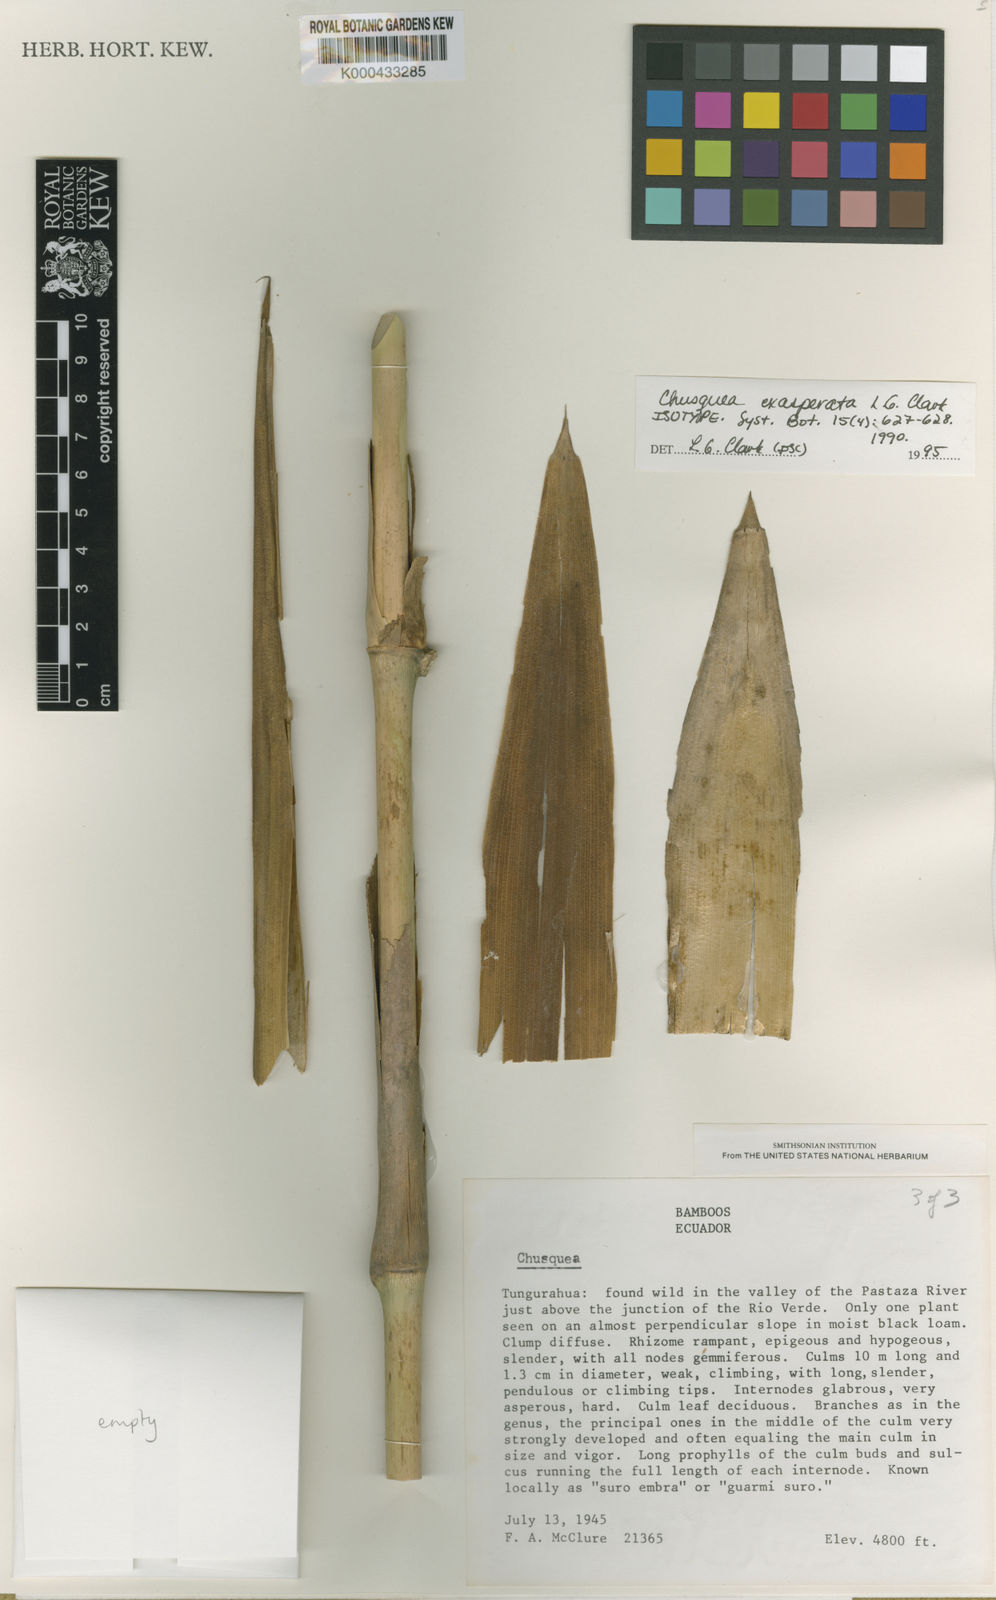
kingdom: Plantae
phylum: Tracheophyta
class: Liliopsida
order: Poales
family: Poaceae
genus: Chusquea
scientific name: Chusquea exasperata
